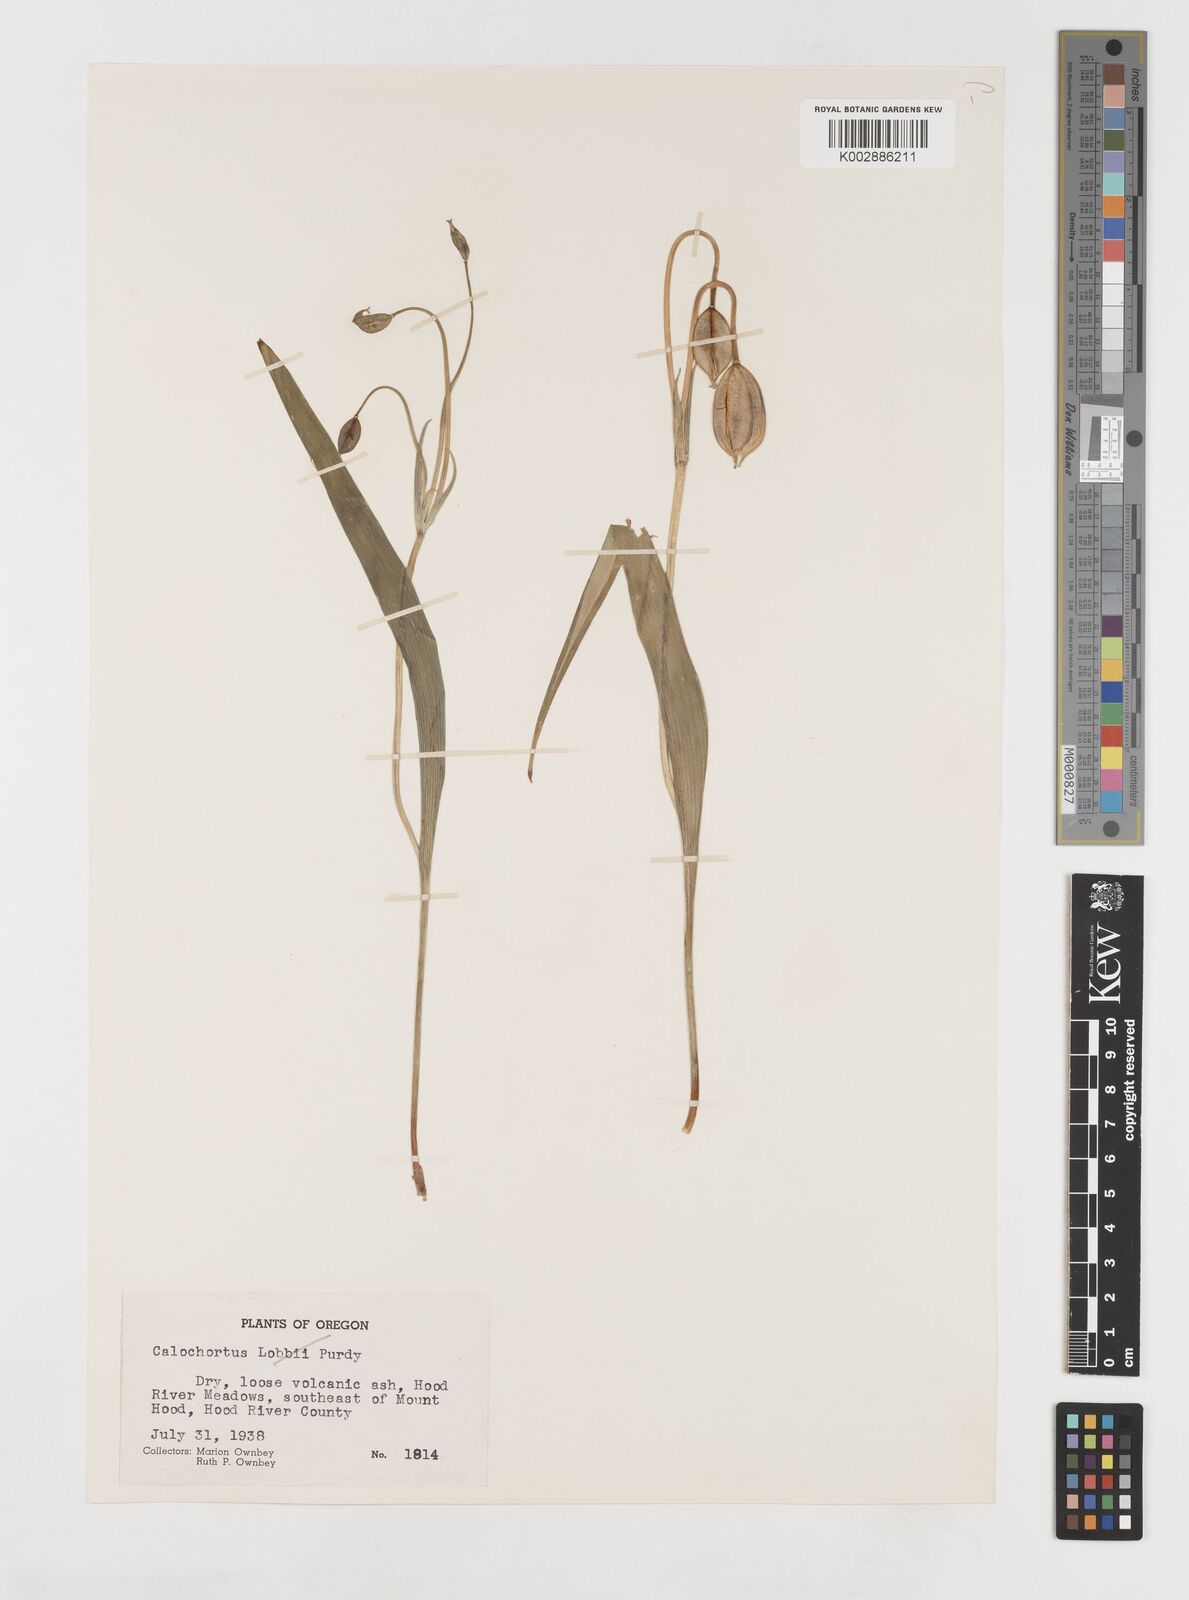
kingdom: Plantae
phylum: Tracheophyta
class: Liliopsida
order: Liliales
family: Liliaceae
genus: Calochortus
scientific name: Calochortus subalpinus
